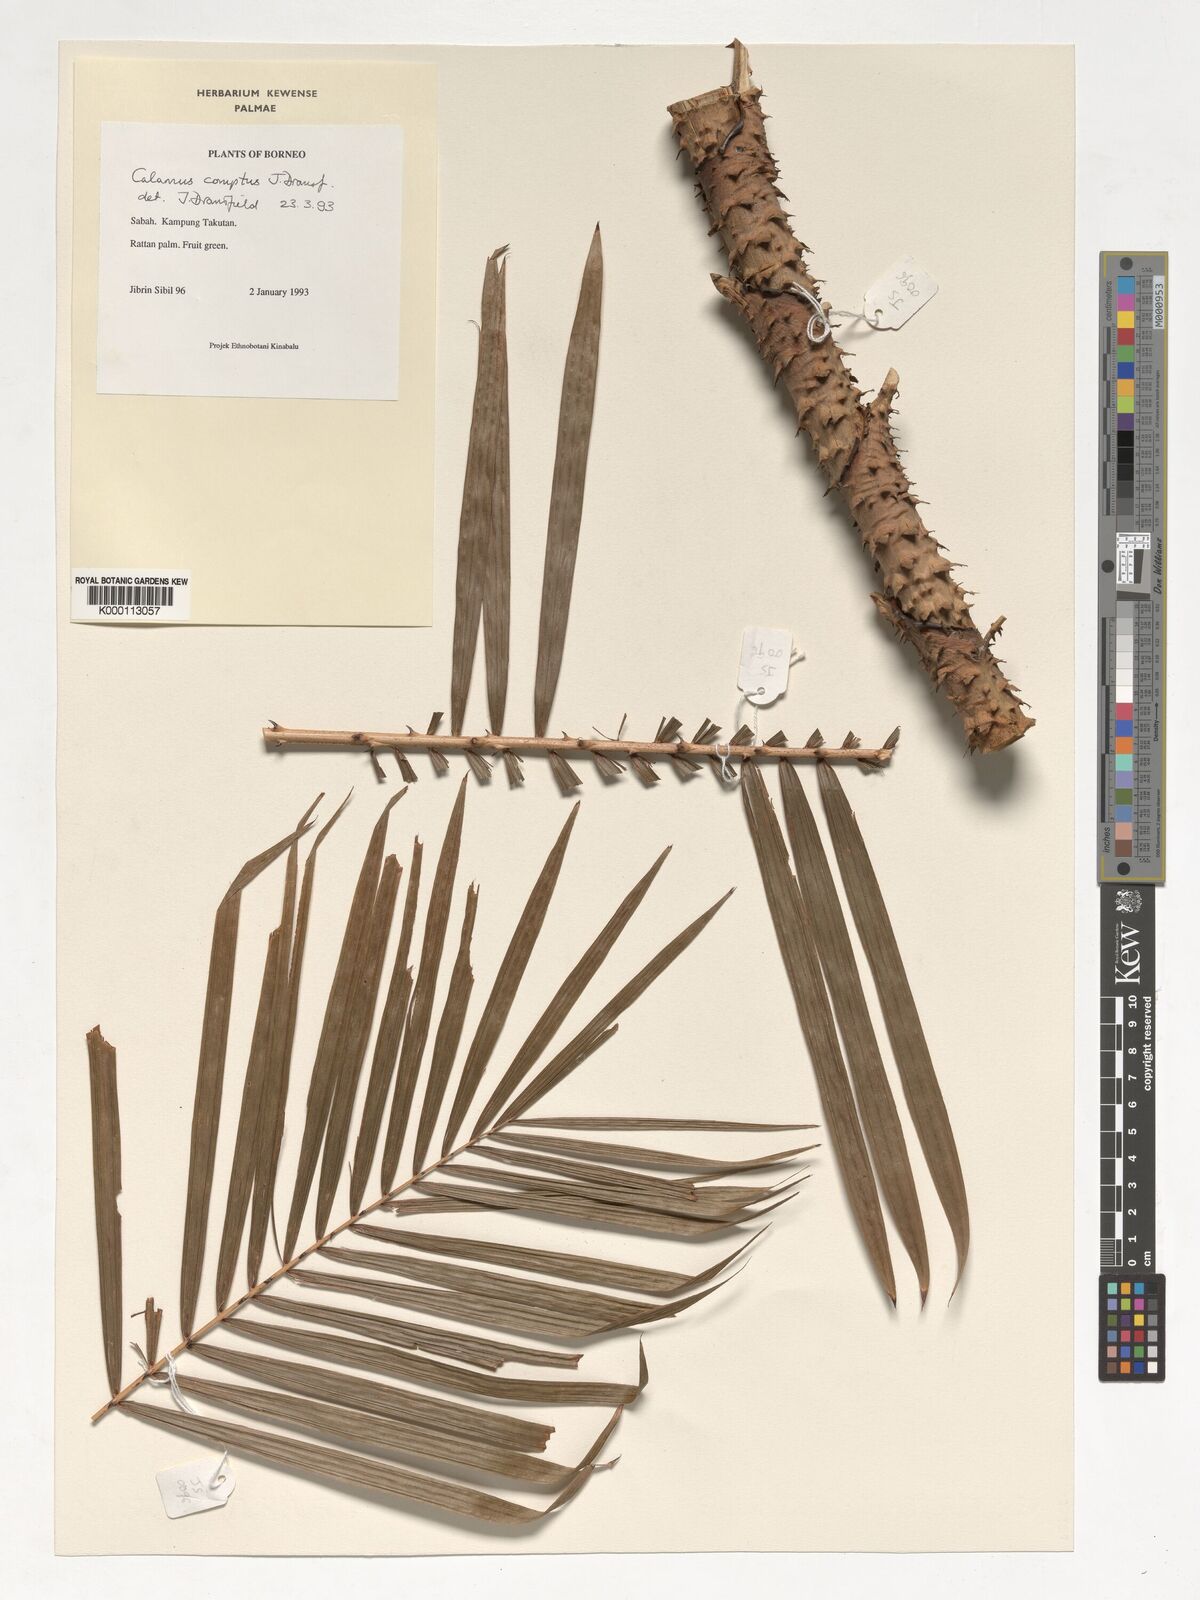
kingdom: Plantae
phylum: Tracheophyta
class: Liliopsida
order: Arecales
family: Arecaceae
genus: Calamus
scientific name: Calamus comptus
